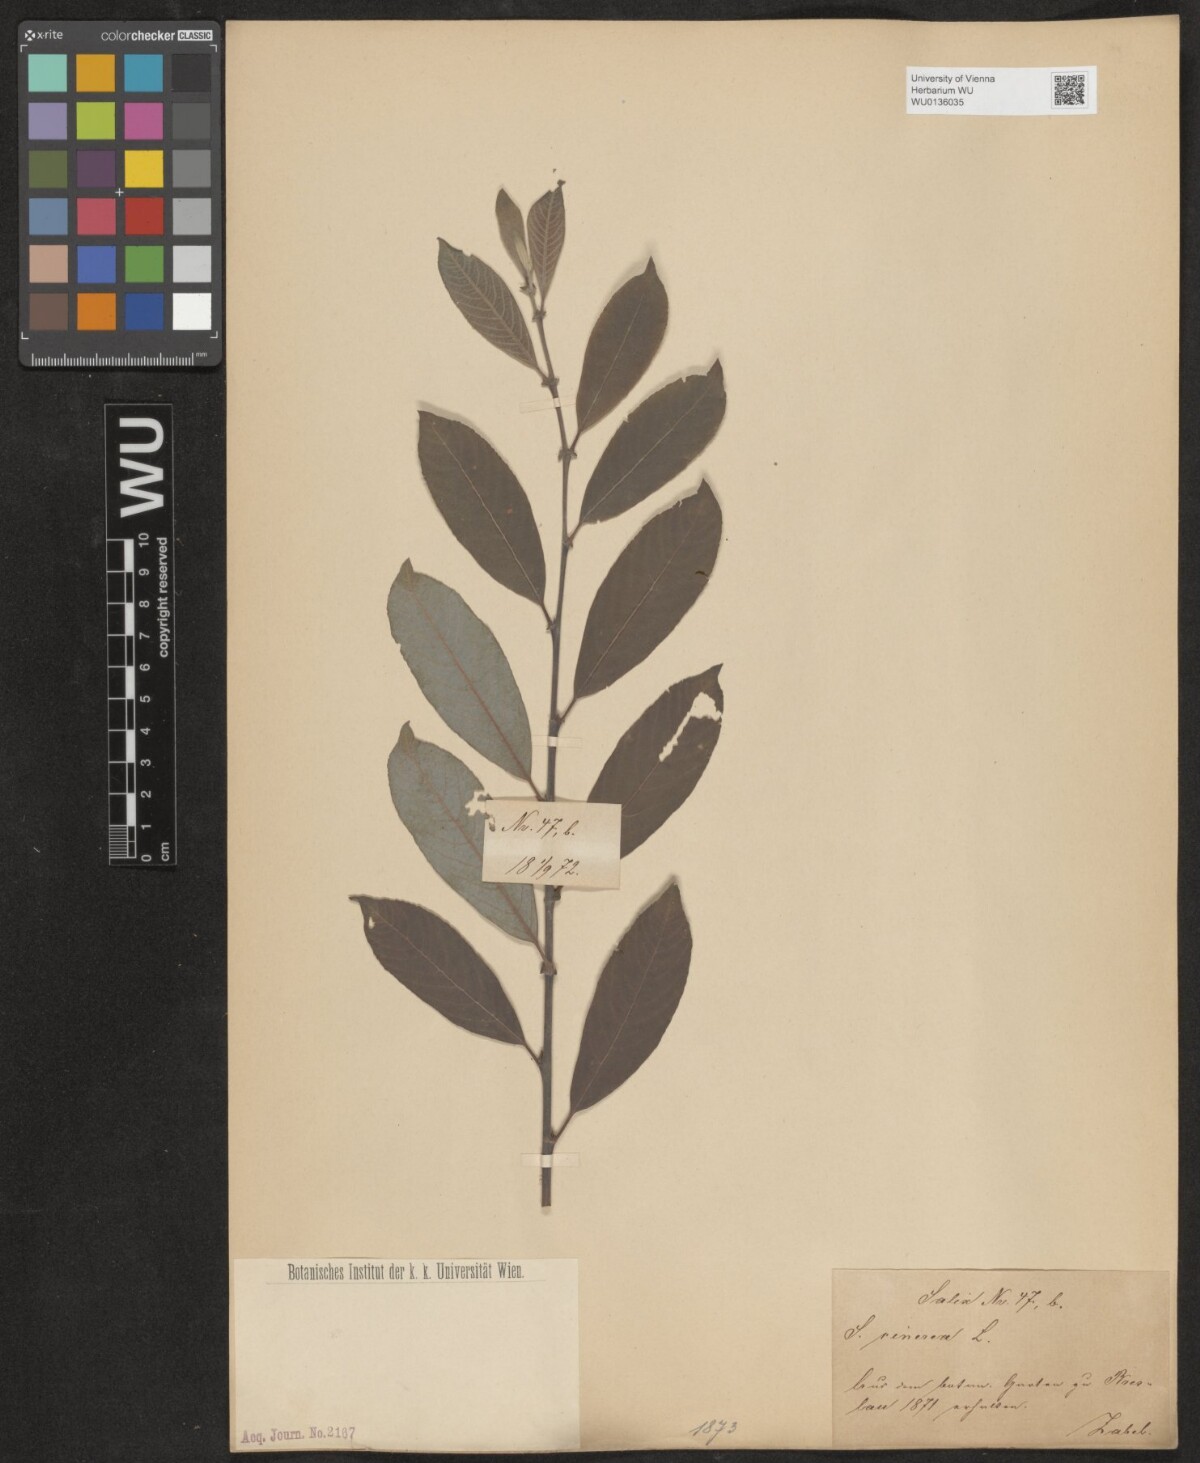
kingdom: Plantae
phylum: Tracheophyta
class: Magnoliopsida
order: Malpighiales
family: Salicaceae
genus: Salix
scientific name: Salix cinerea
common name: Common sallow
